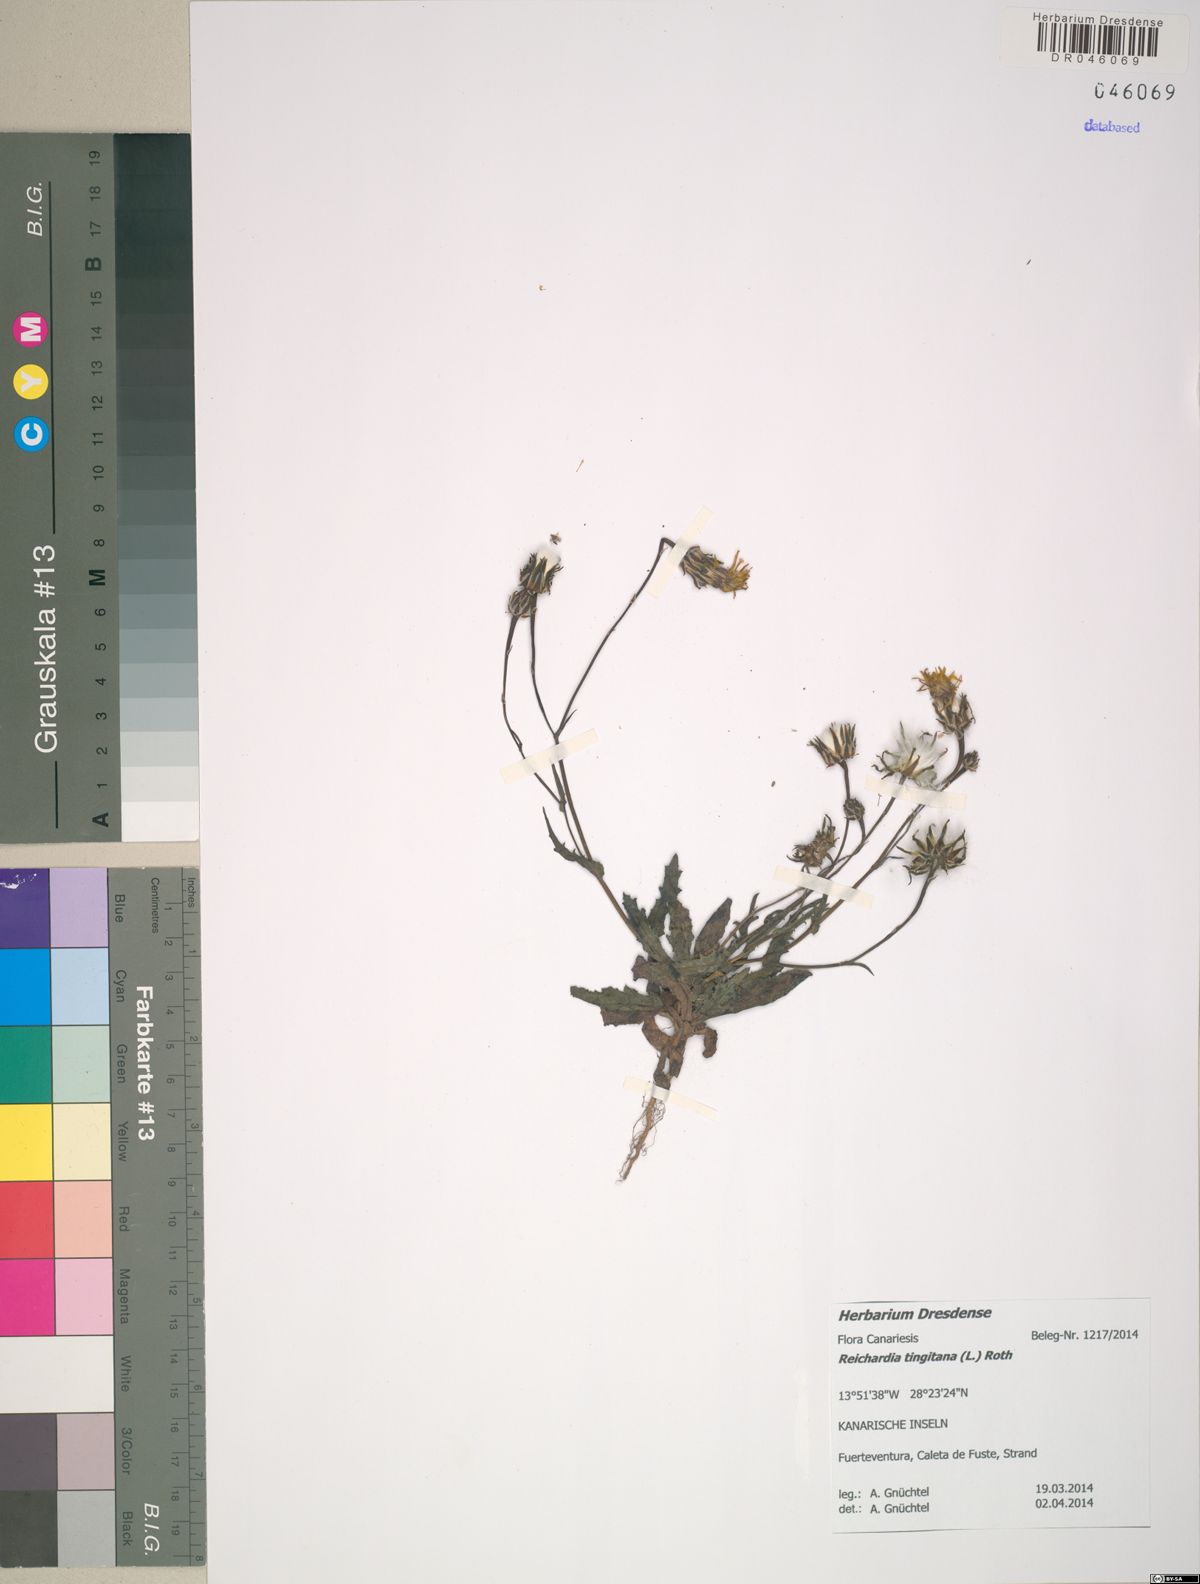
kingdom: Plantae
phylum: Tracheophyta
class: Magnoliopsida
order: Asterales
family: Asteraceae
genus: Reichardia
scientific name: Reichardia tingitana
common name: Reichardia
